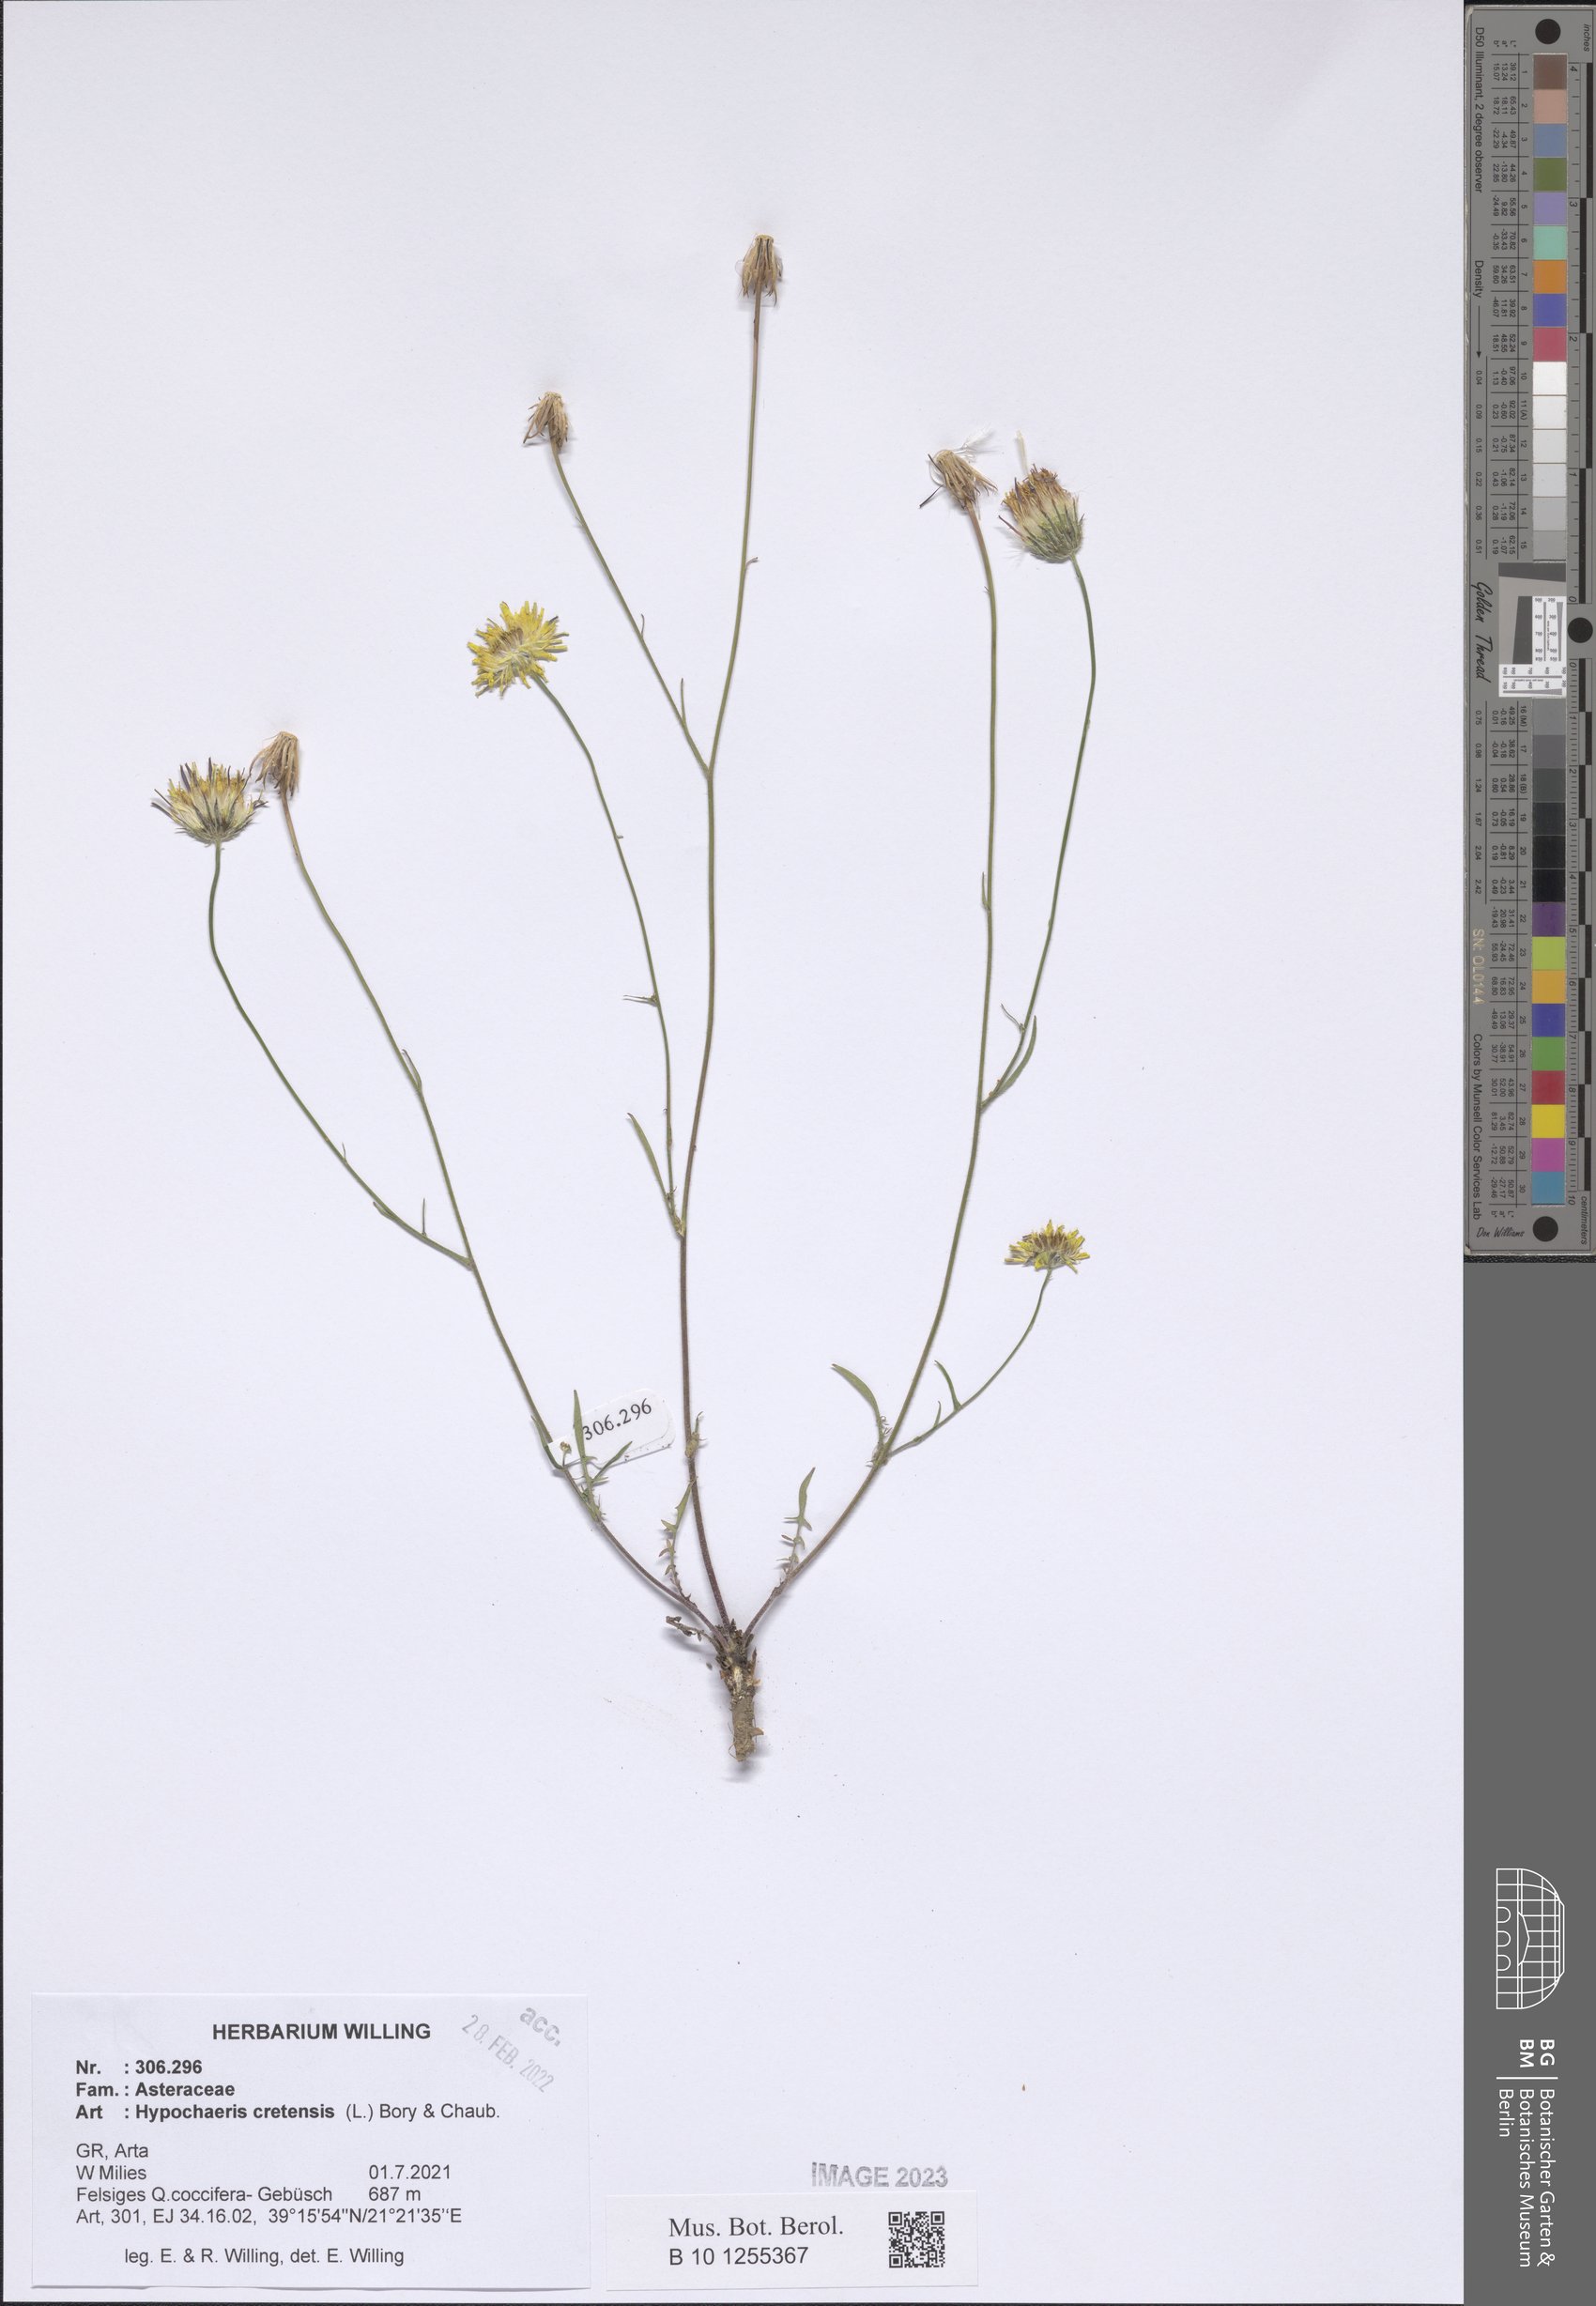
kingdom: Plantae
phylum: Tracheophyta
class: Magnoliopsida
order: Asterales
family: Asteraceae
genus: Hypochaeris
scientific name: Hypochaeris cretensis
